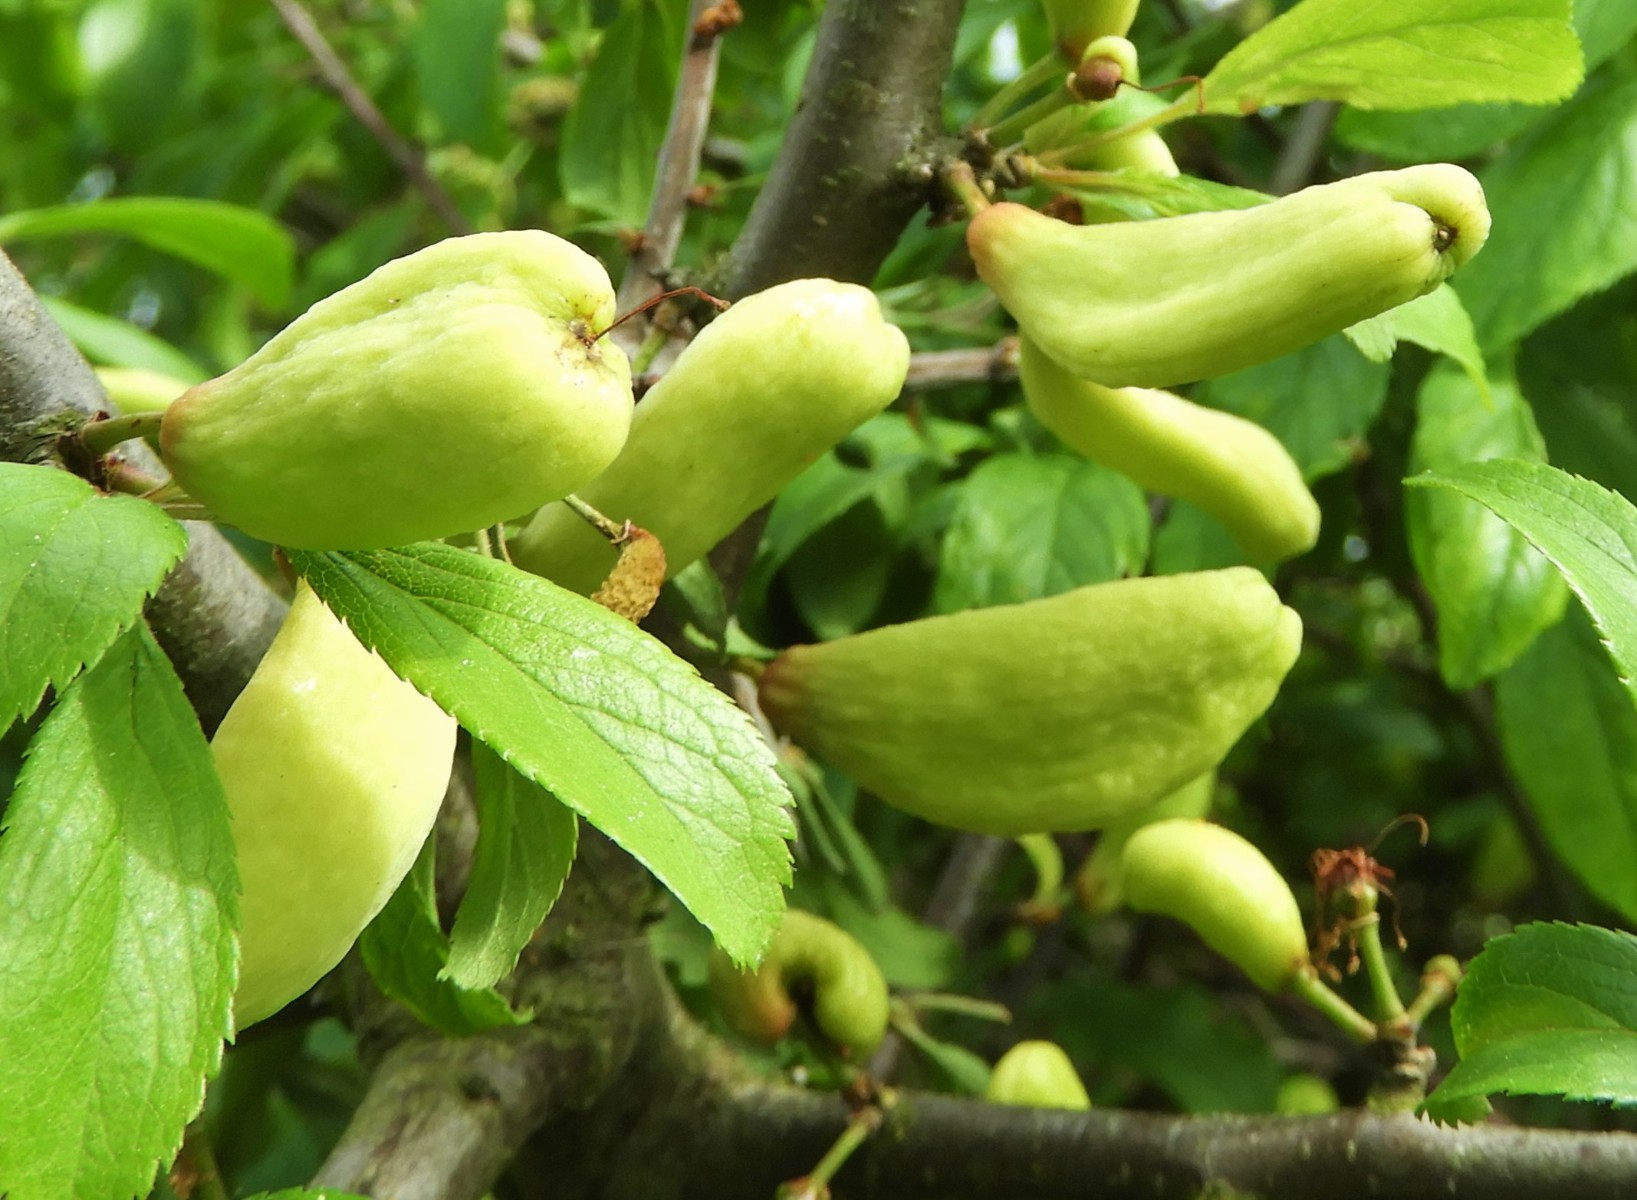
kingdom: Fungi
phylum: Ascomycota
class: Taphrinomycetes
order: Taphrinales
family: Taphrinaceae
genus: Taphrina
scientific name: Taphrina pruni
